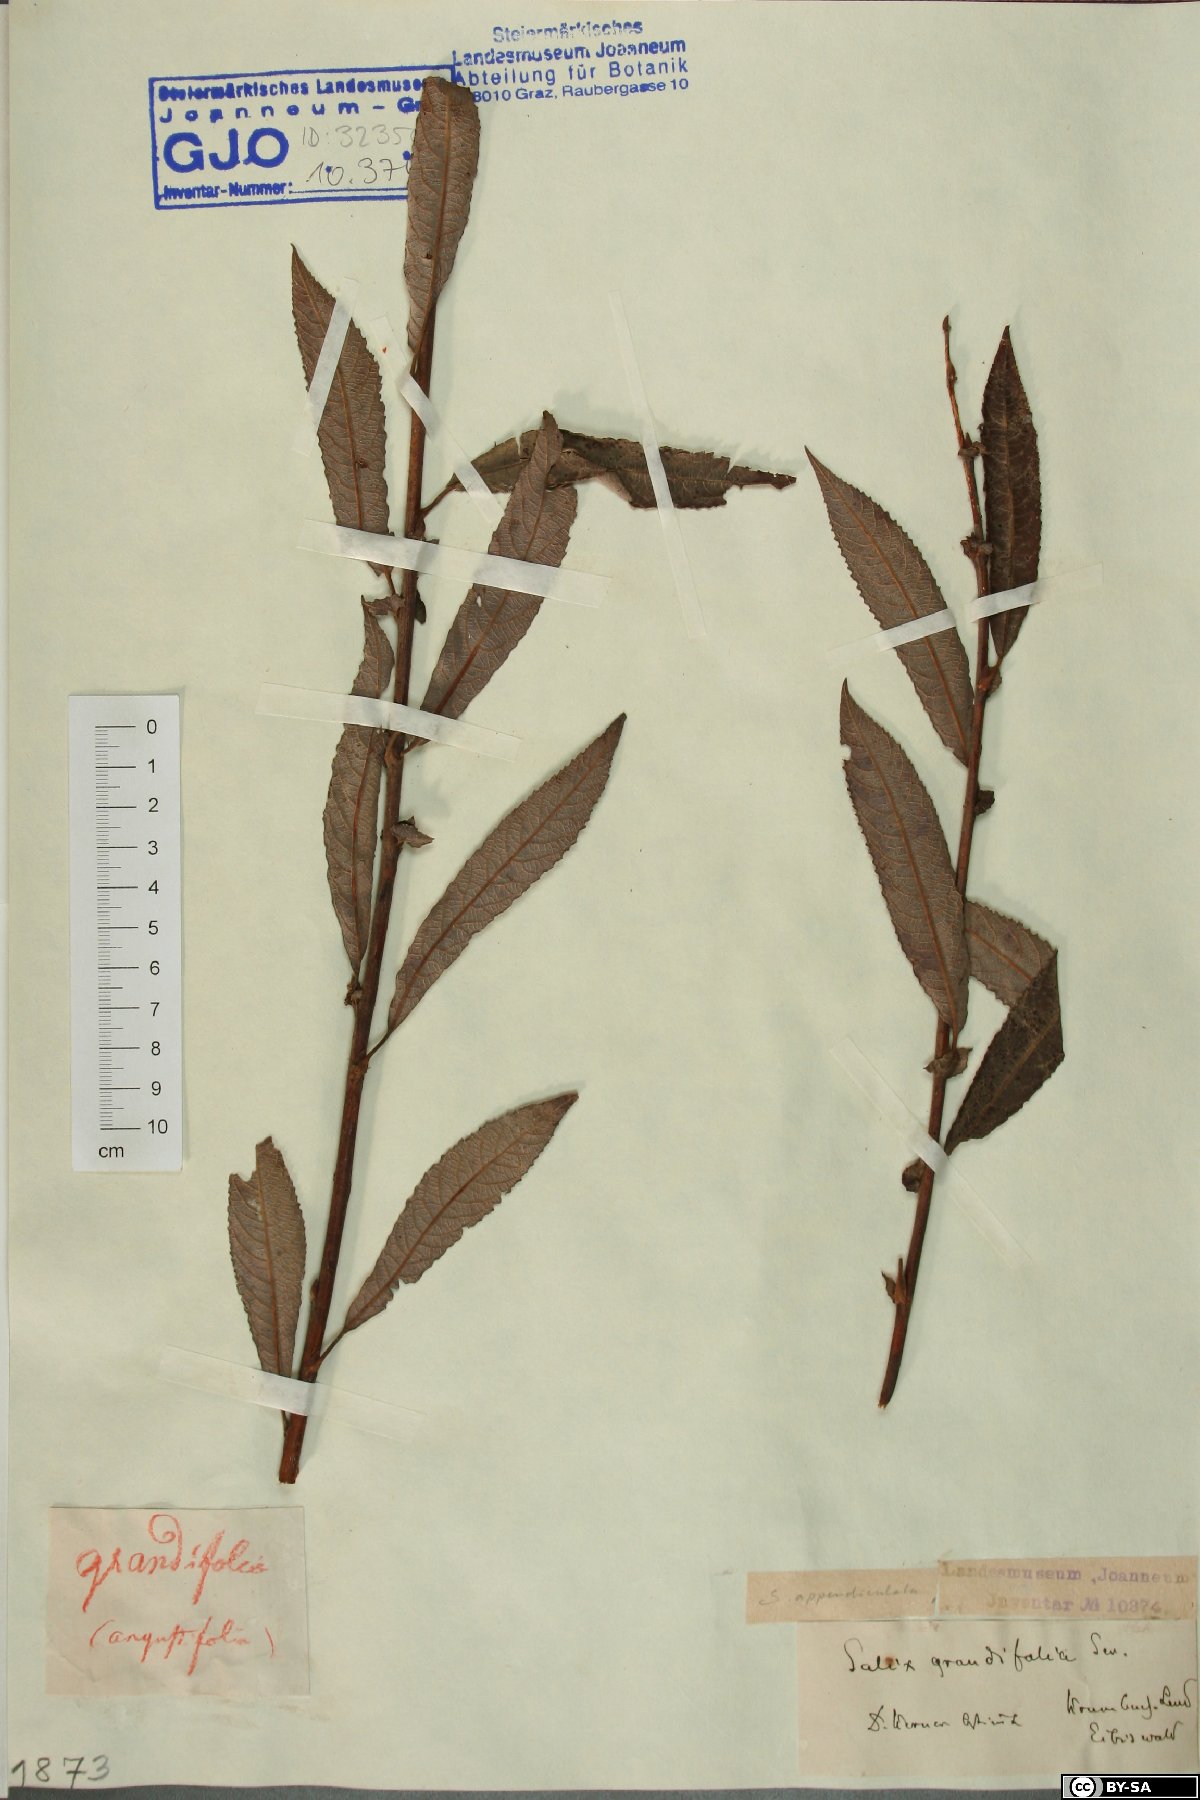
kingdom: Plantae
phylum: Tracheophyta
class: Magnoliopsida
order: Malpighiales
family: Salicaceae
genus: Salix
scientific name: Salix appendiculata
